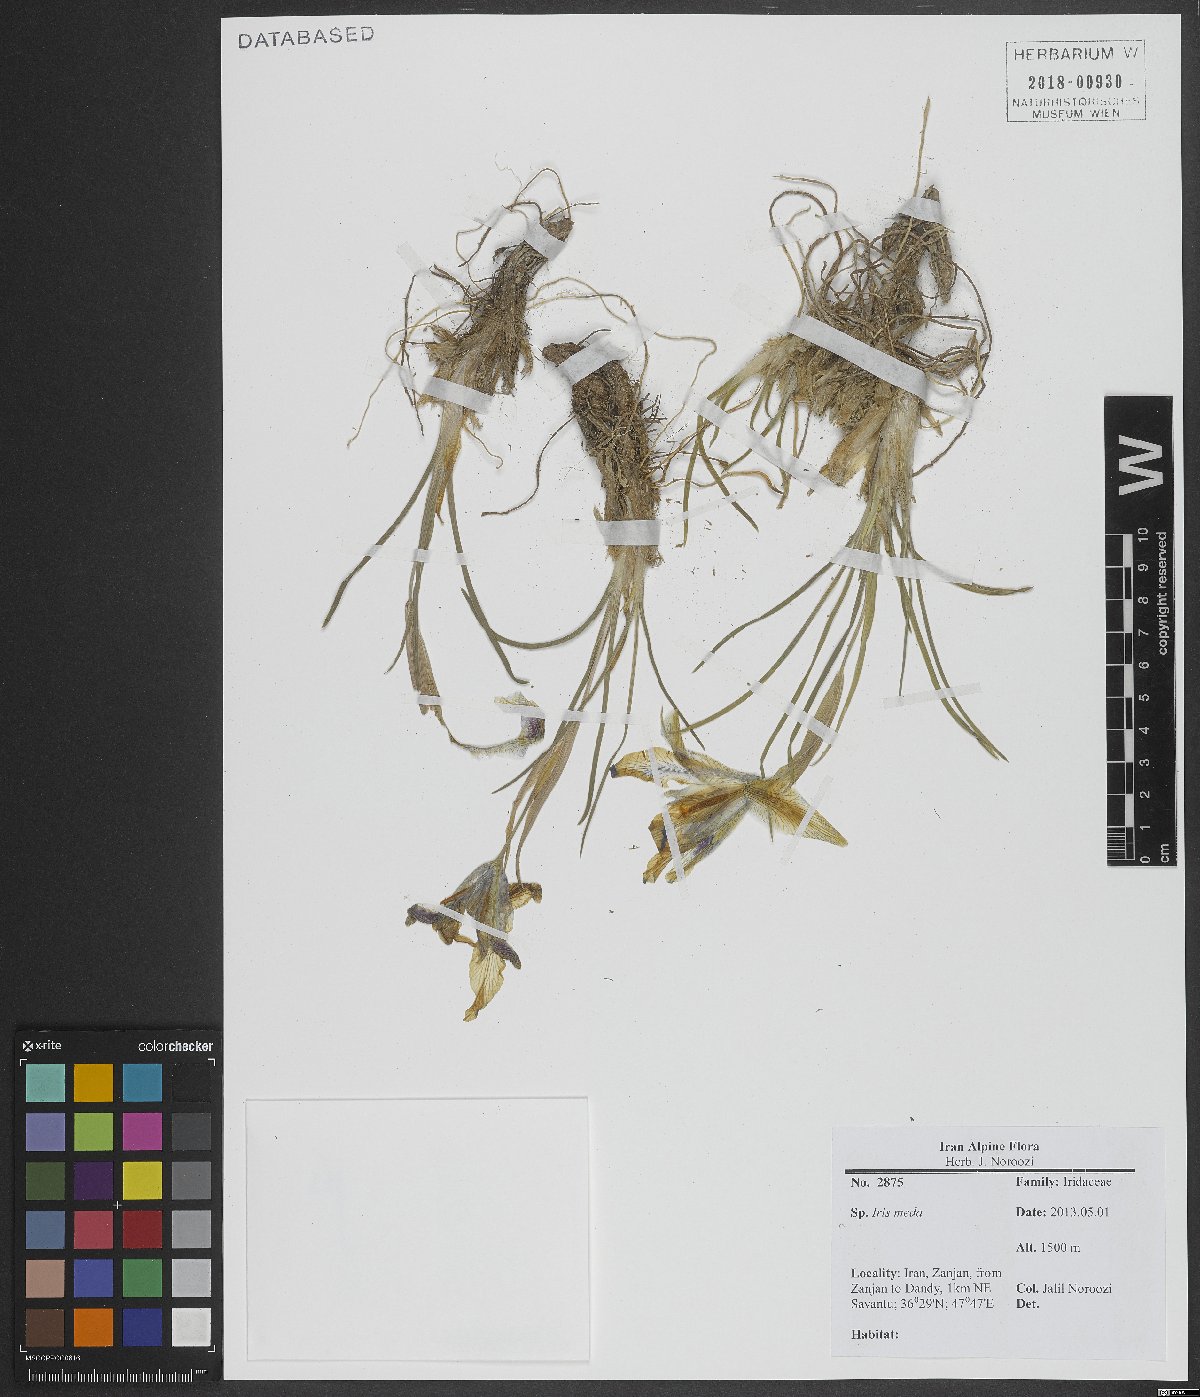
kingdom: Plantae
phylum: Tracheophyta
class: Liliopsida
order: Asparagales
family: Iridaceae
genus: Iris
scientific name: Iris meda
